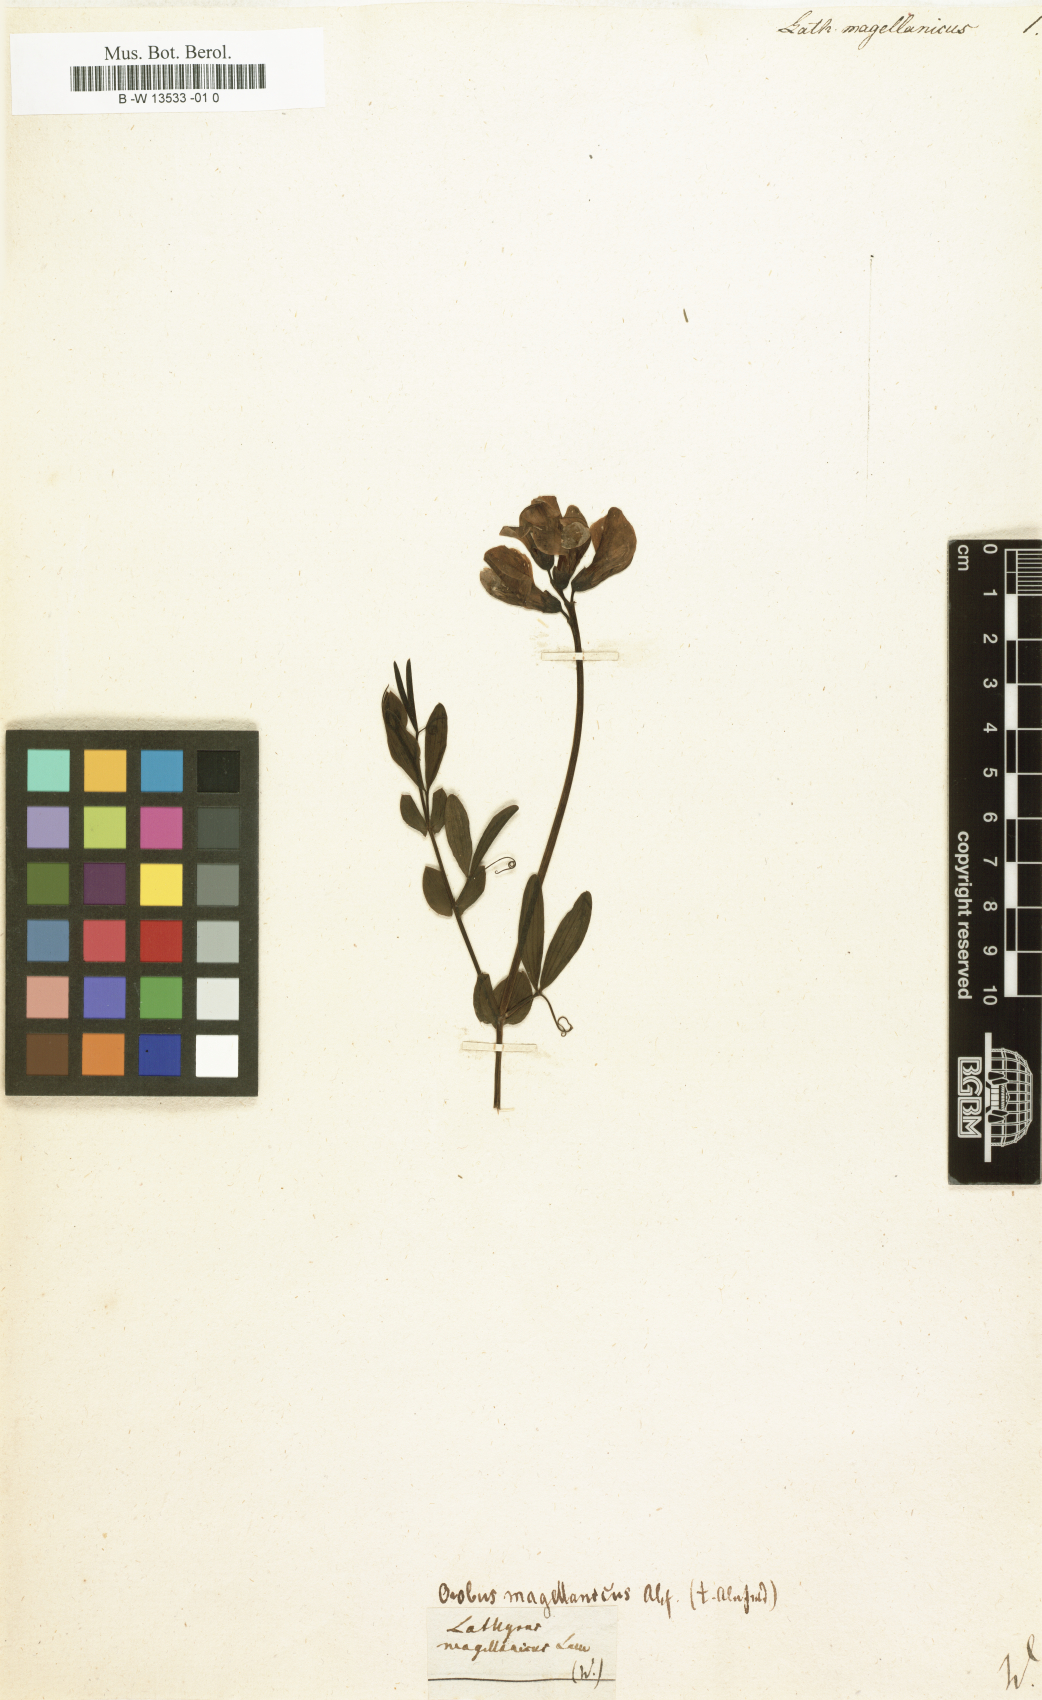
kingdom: Plantae
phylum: Tracheophyta
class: Magnoliopsida
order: Fabales
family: Fabaceae
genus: Lathyrus
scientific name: Lathyrus magellanicus
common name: Lord anson's pea
